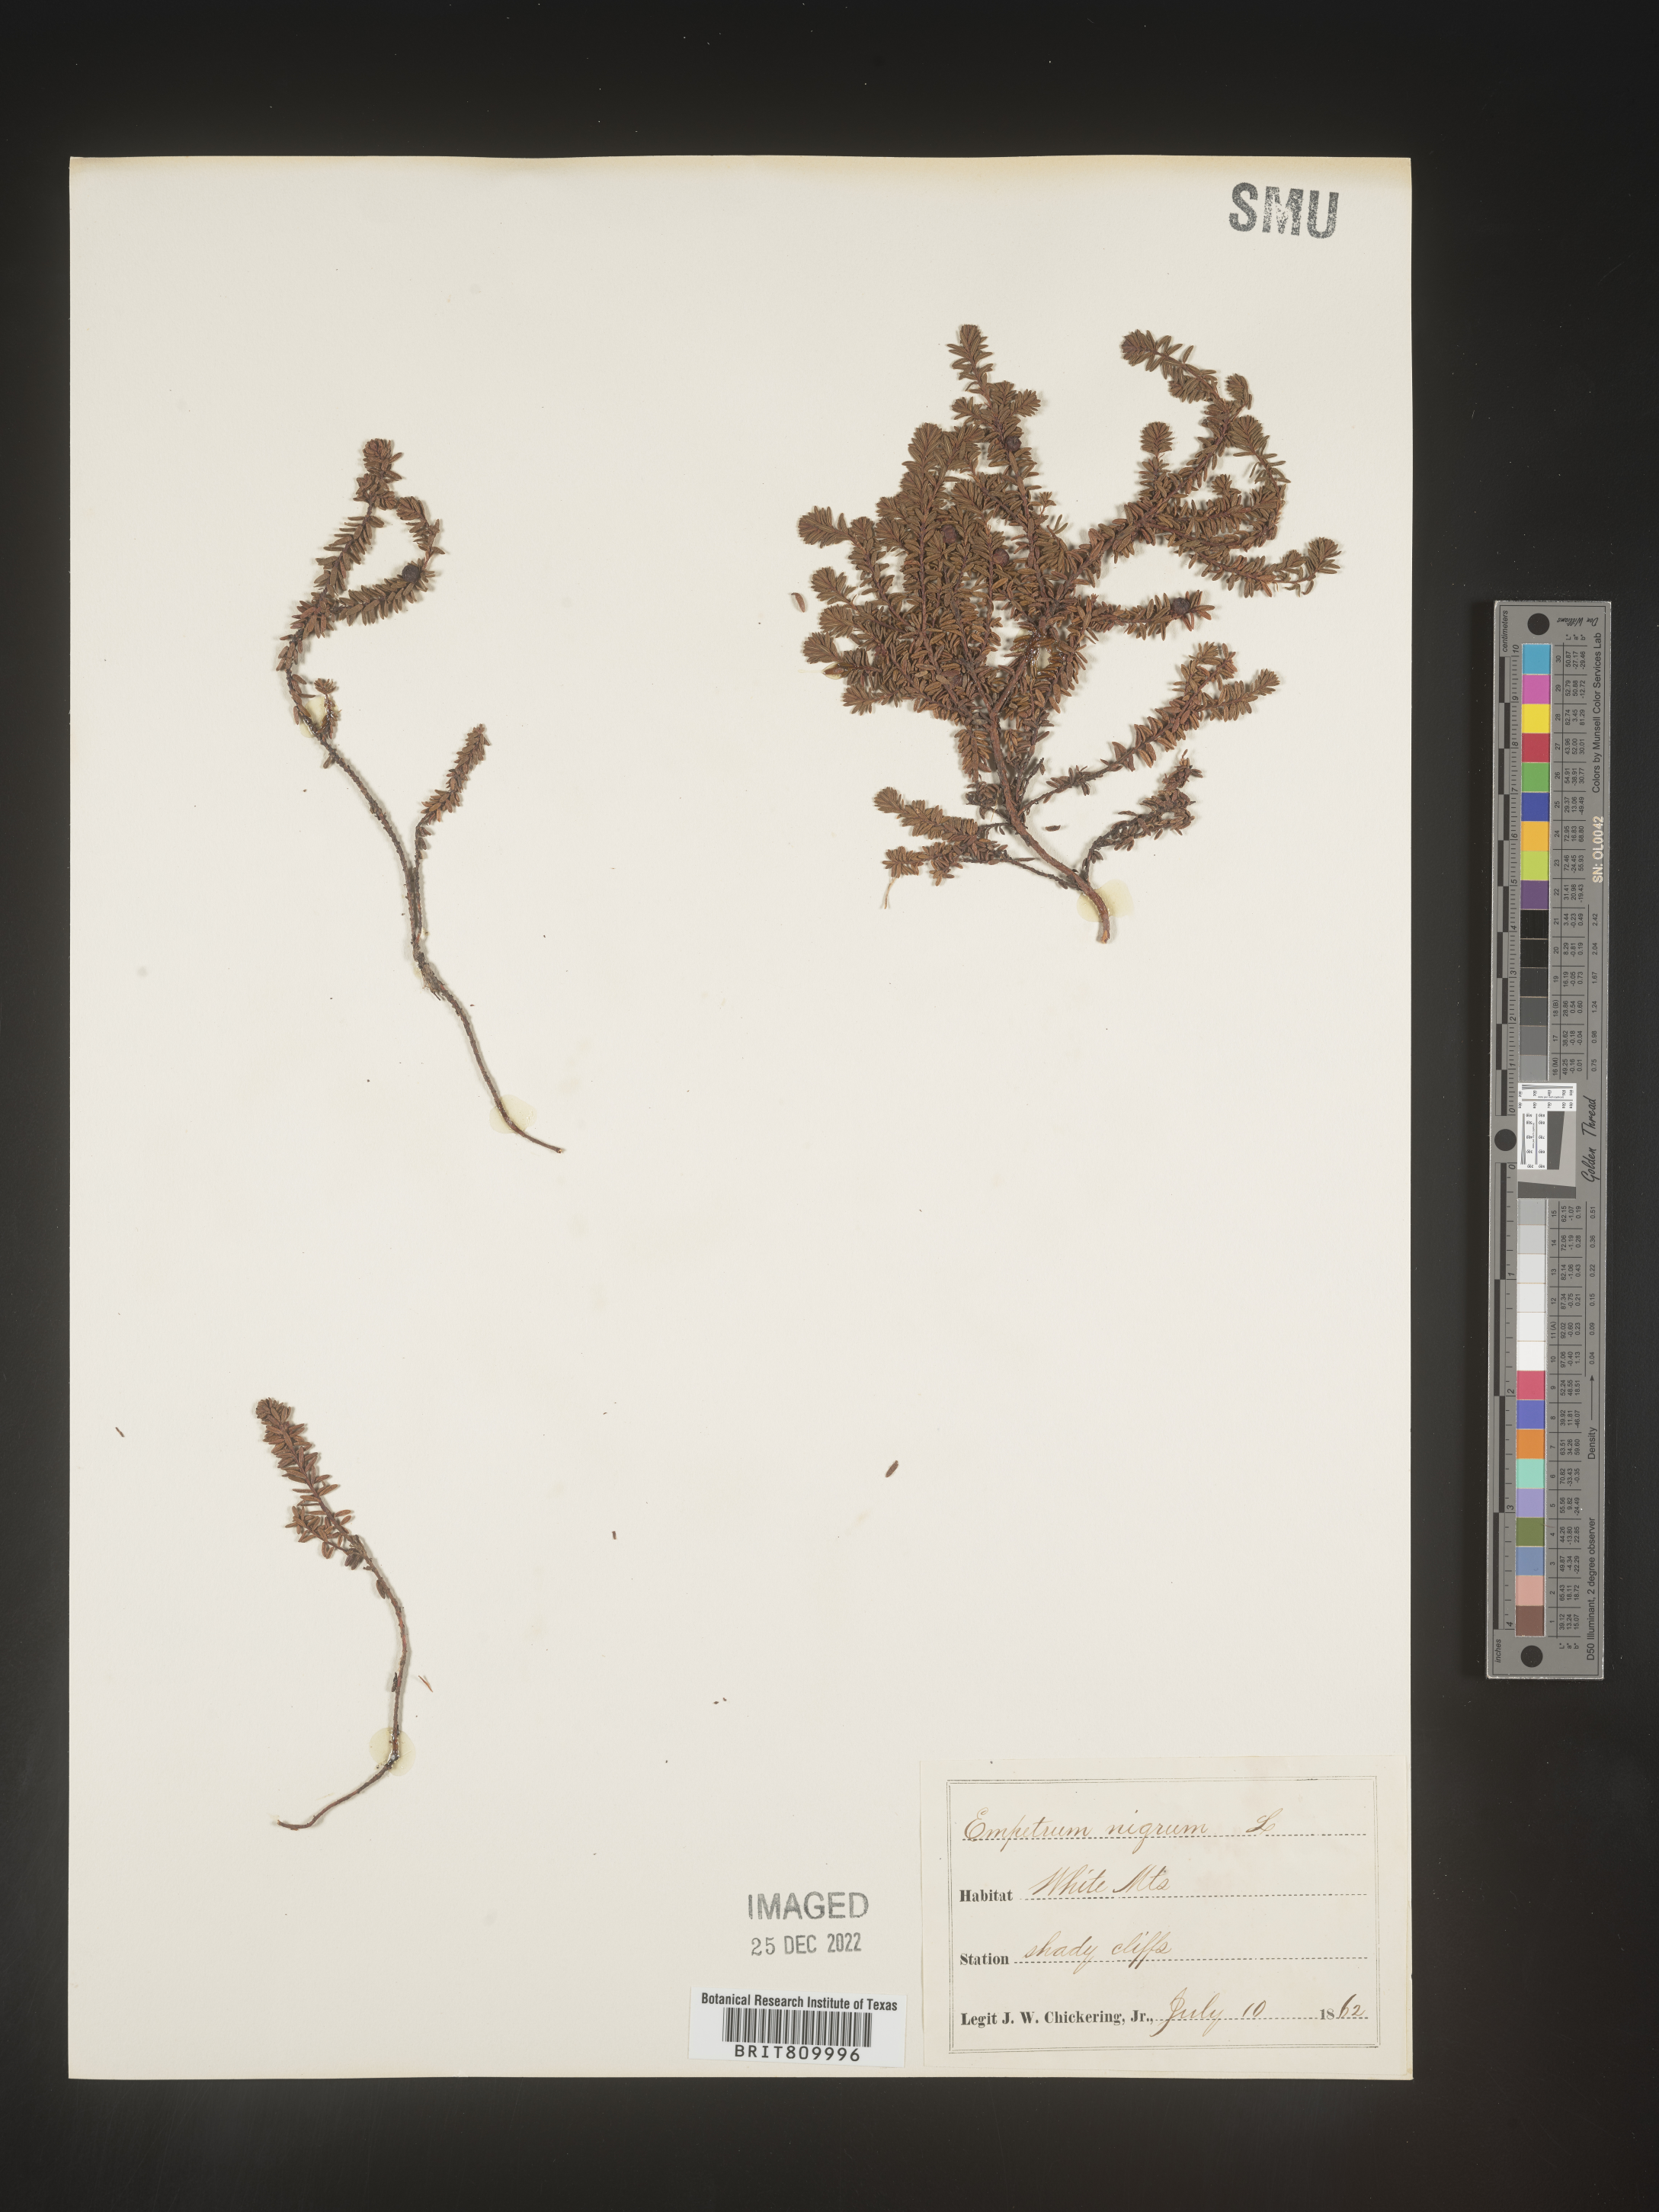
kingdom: Plantae
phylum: Tracheophyta
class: Magnoliopsida
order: Ericales
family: Ericaceae
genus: Empetrum
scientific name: Empetrum
